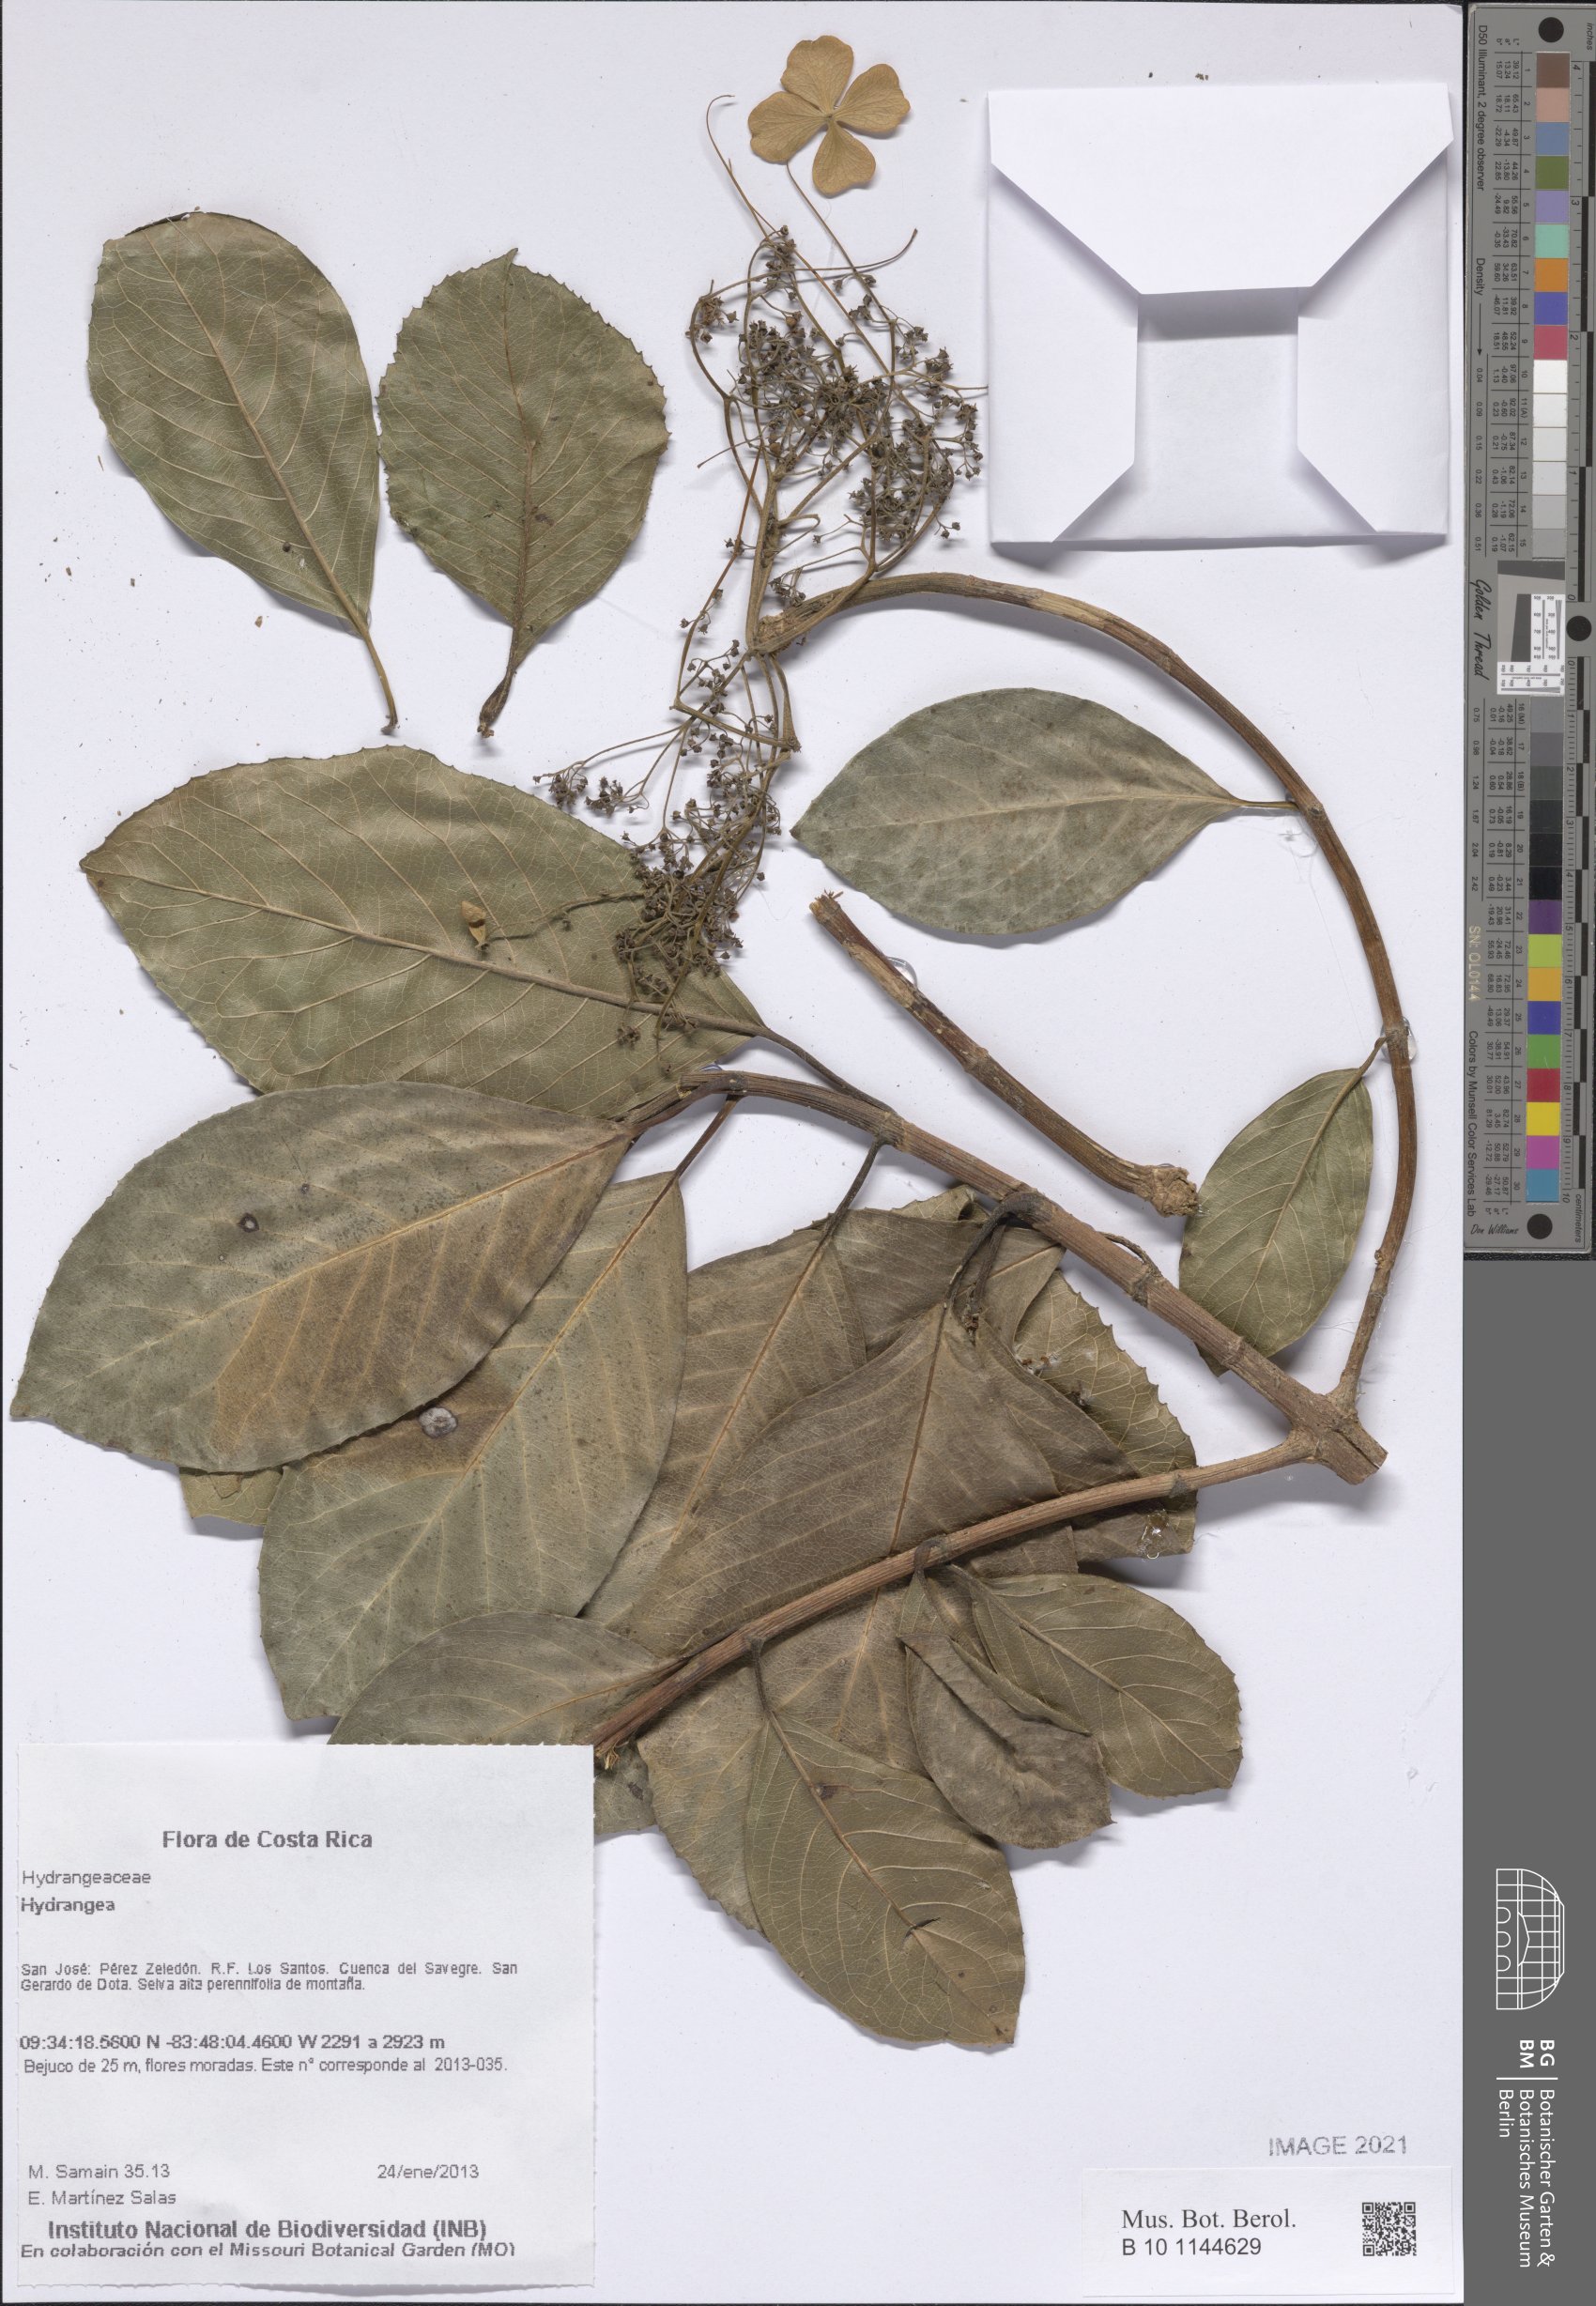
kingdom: Plantae
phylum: Tracheophyta
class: Magnoliopsida
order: Cornales
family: Hydrangeaceae
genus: Hydrangea
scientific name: Hydrangea
